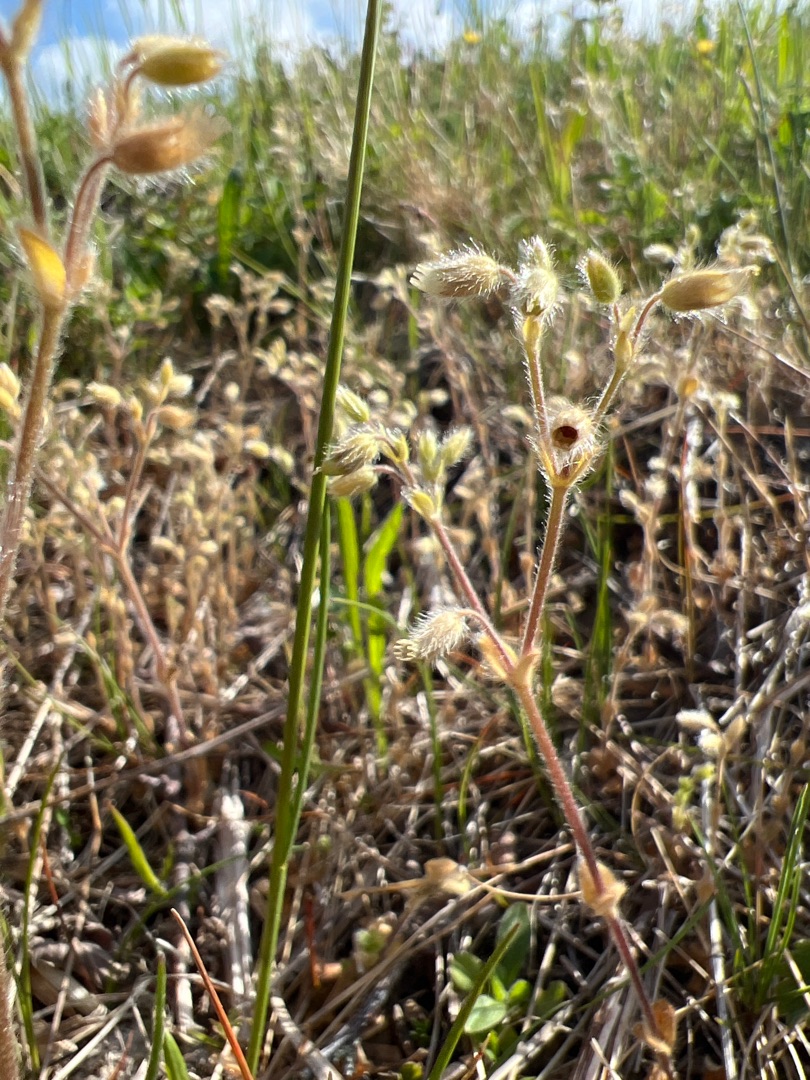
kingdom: Plantae
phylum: Tracheophyta
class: Magnoliopsida
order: Caryophyllales
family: Caryophyllaceae
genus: Cerastium
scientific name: Cerastium brachypetalum
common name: Stivhåret hønsetarm
